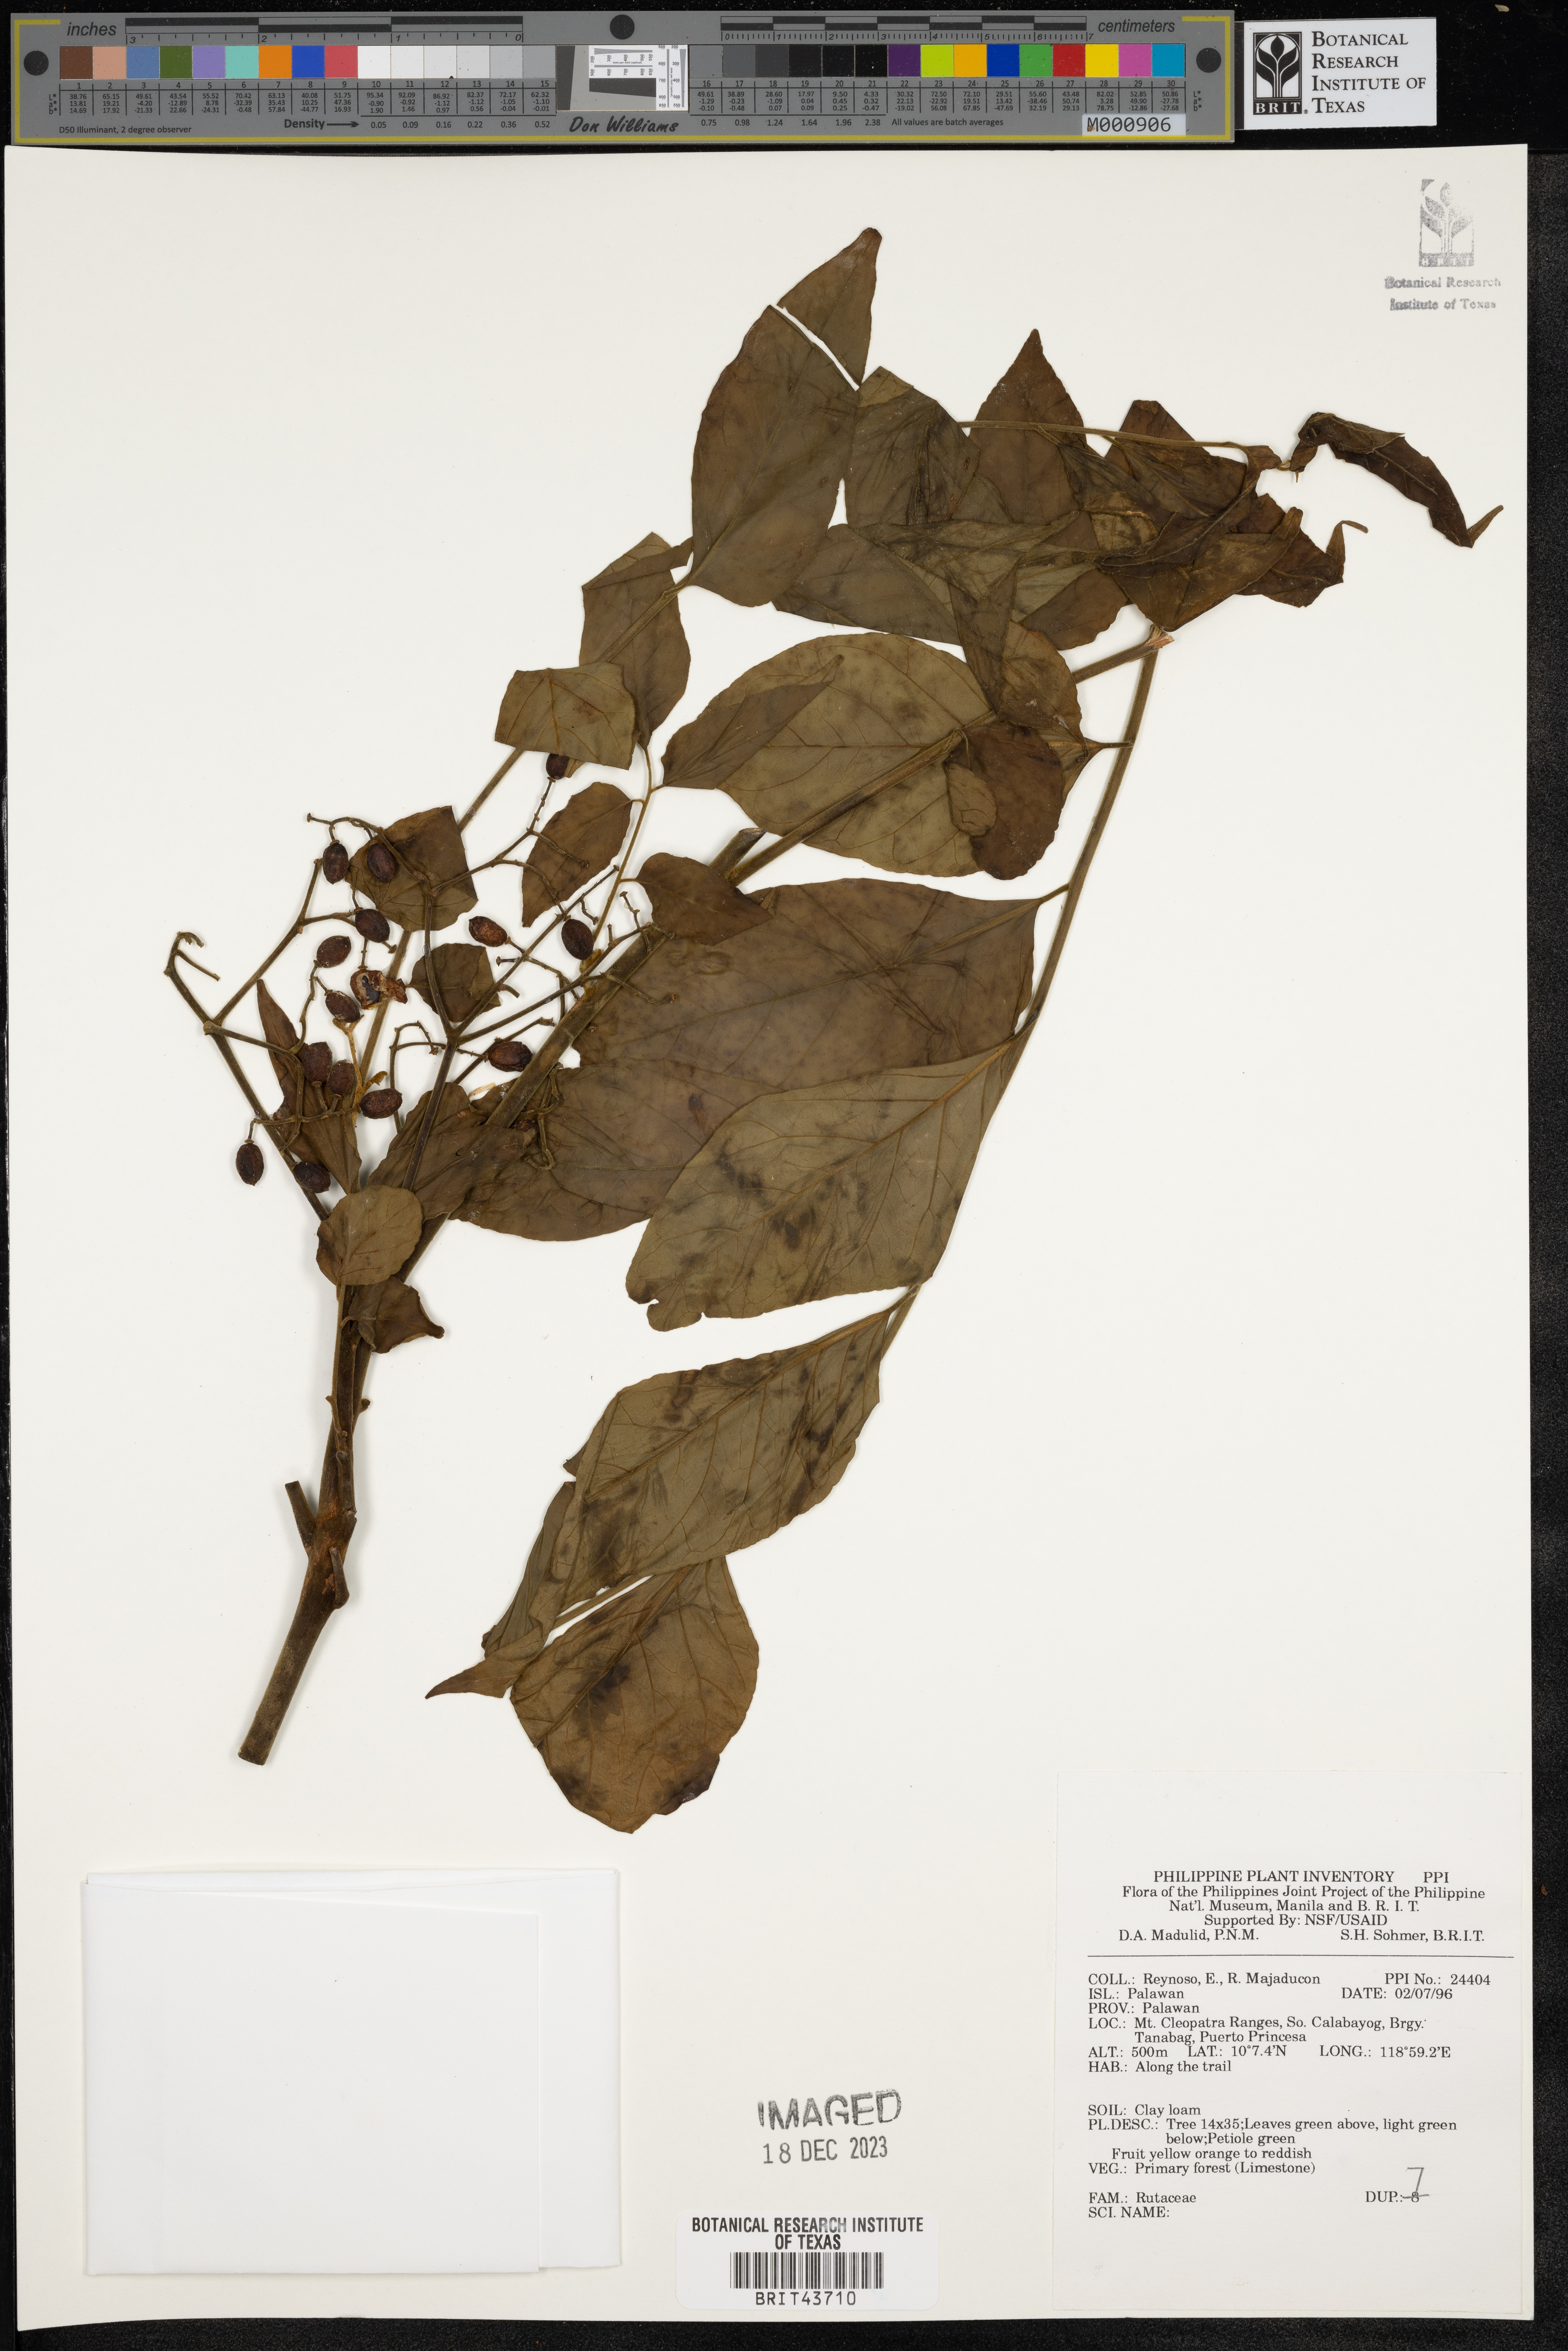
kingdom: Plantae
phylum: Tracheophyta
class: Magnoliopsida
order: Sapindales
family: Rutaceae
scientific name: Rutaceae
